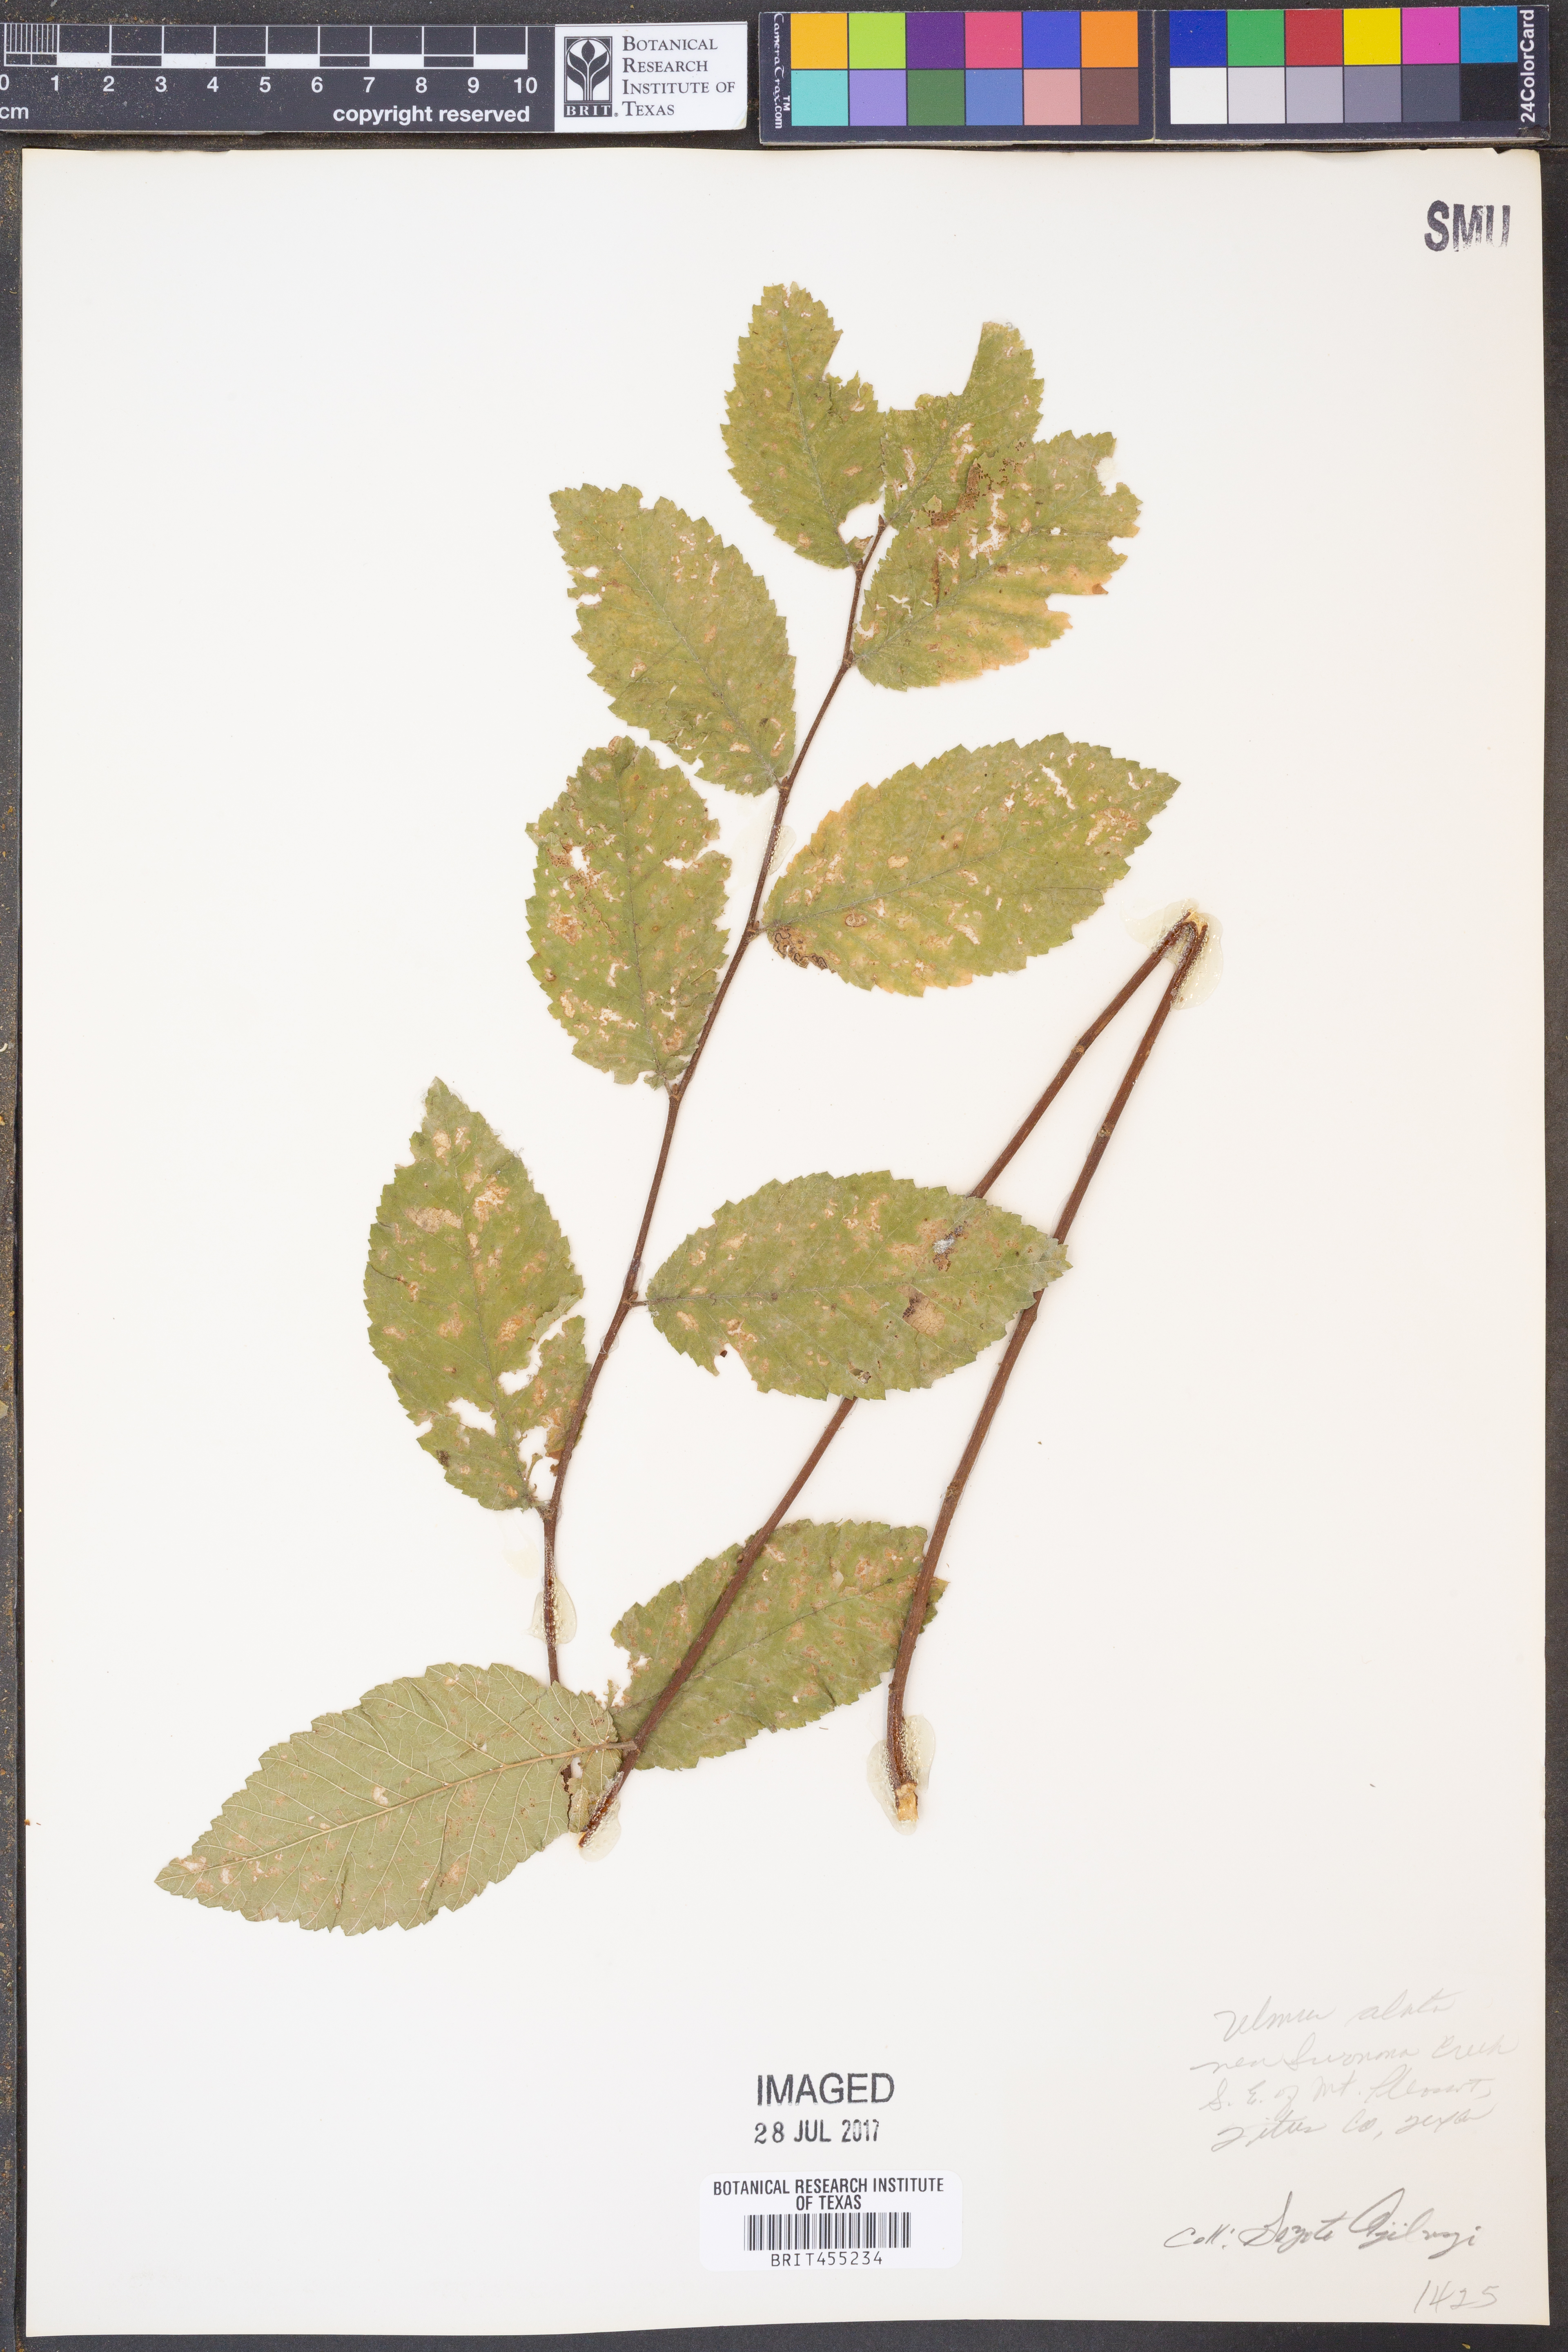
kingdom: Plantae
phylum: Tracheophyta
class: Magnoliopsida
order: Rosales
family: Ulmaceae
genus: Ulmus
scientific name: Ulmus alata
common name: Winged elm
